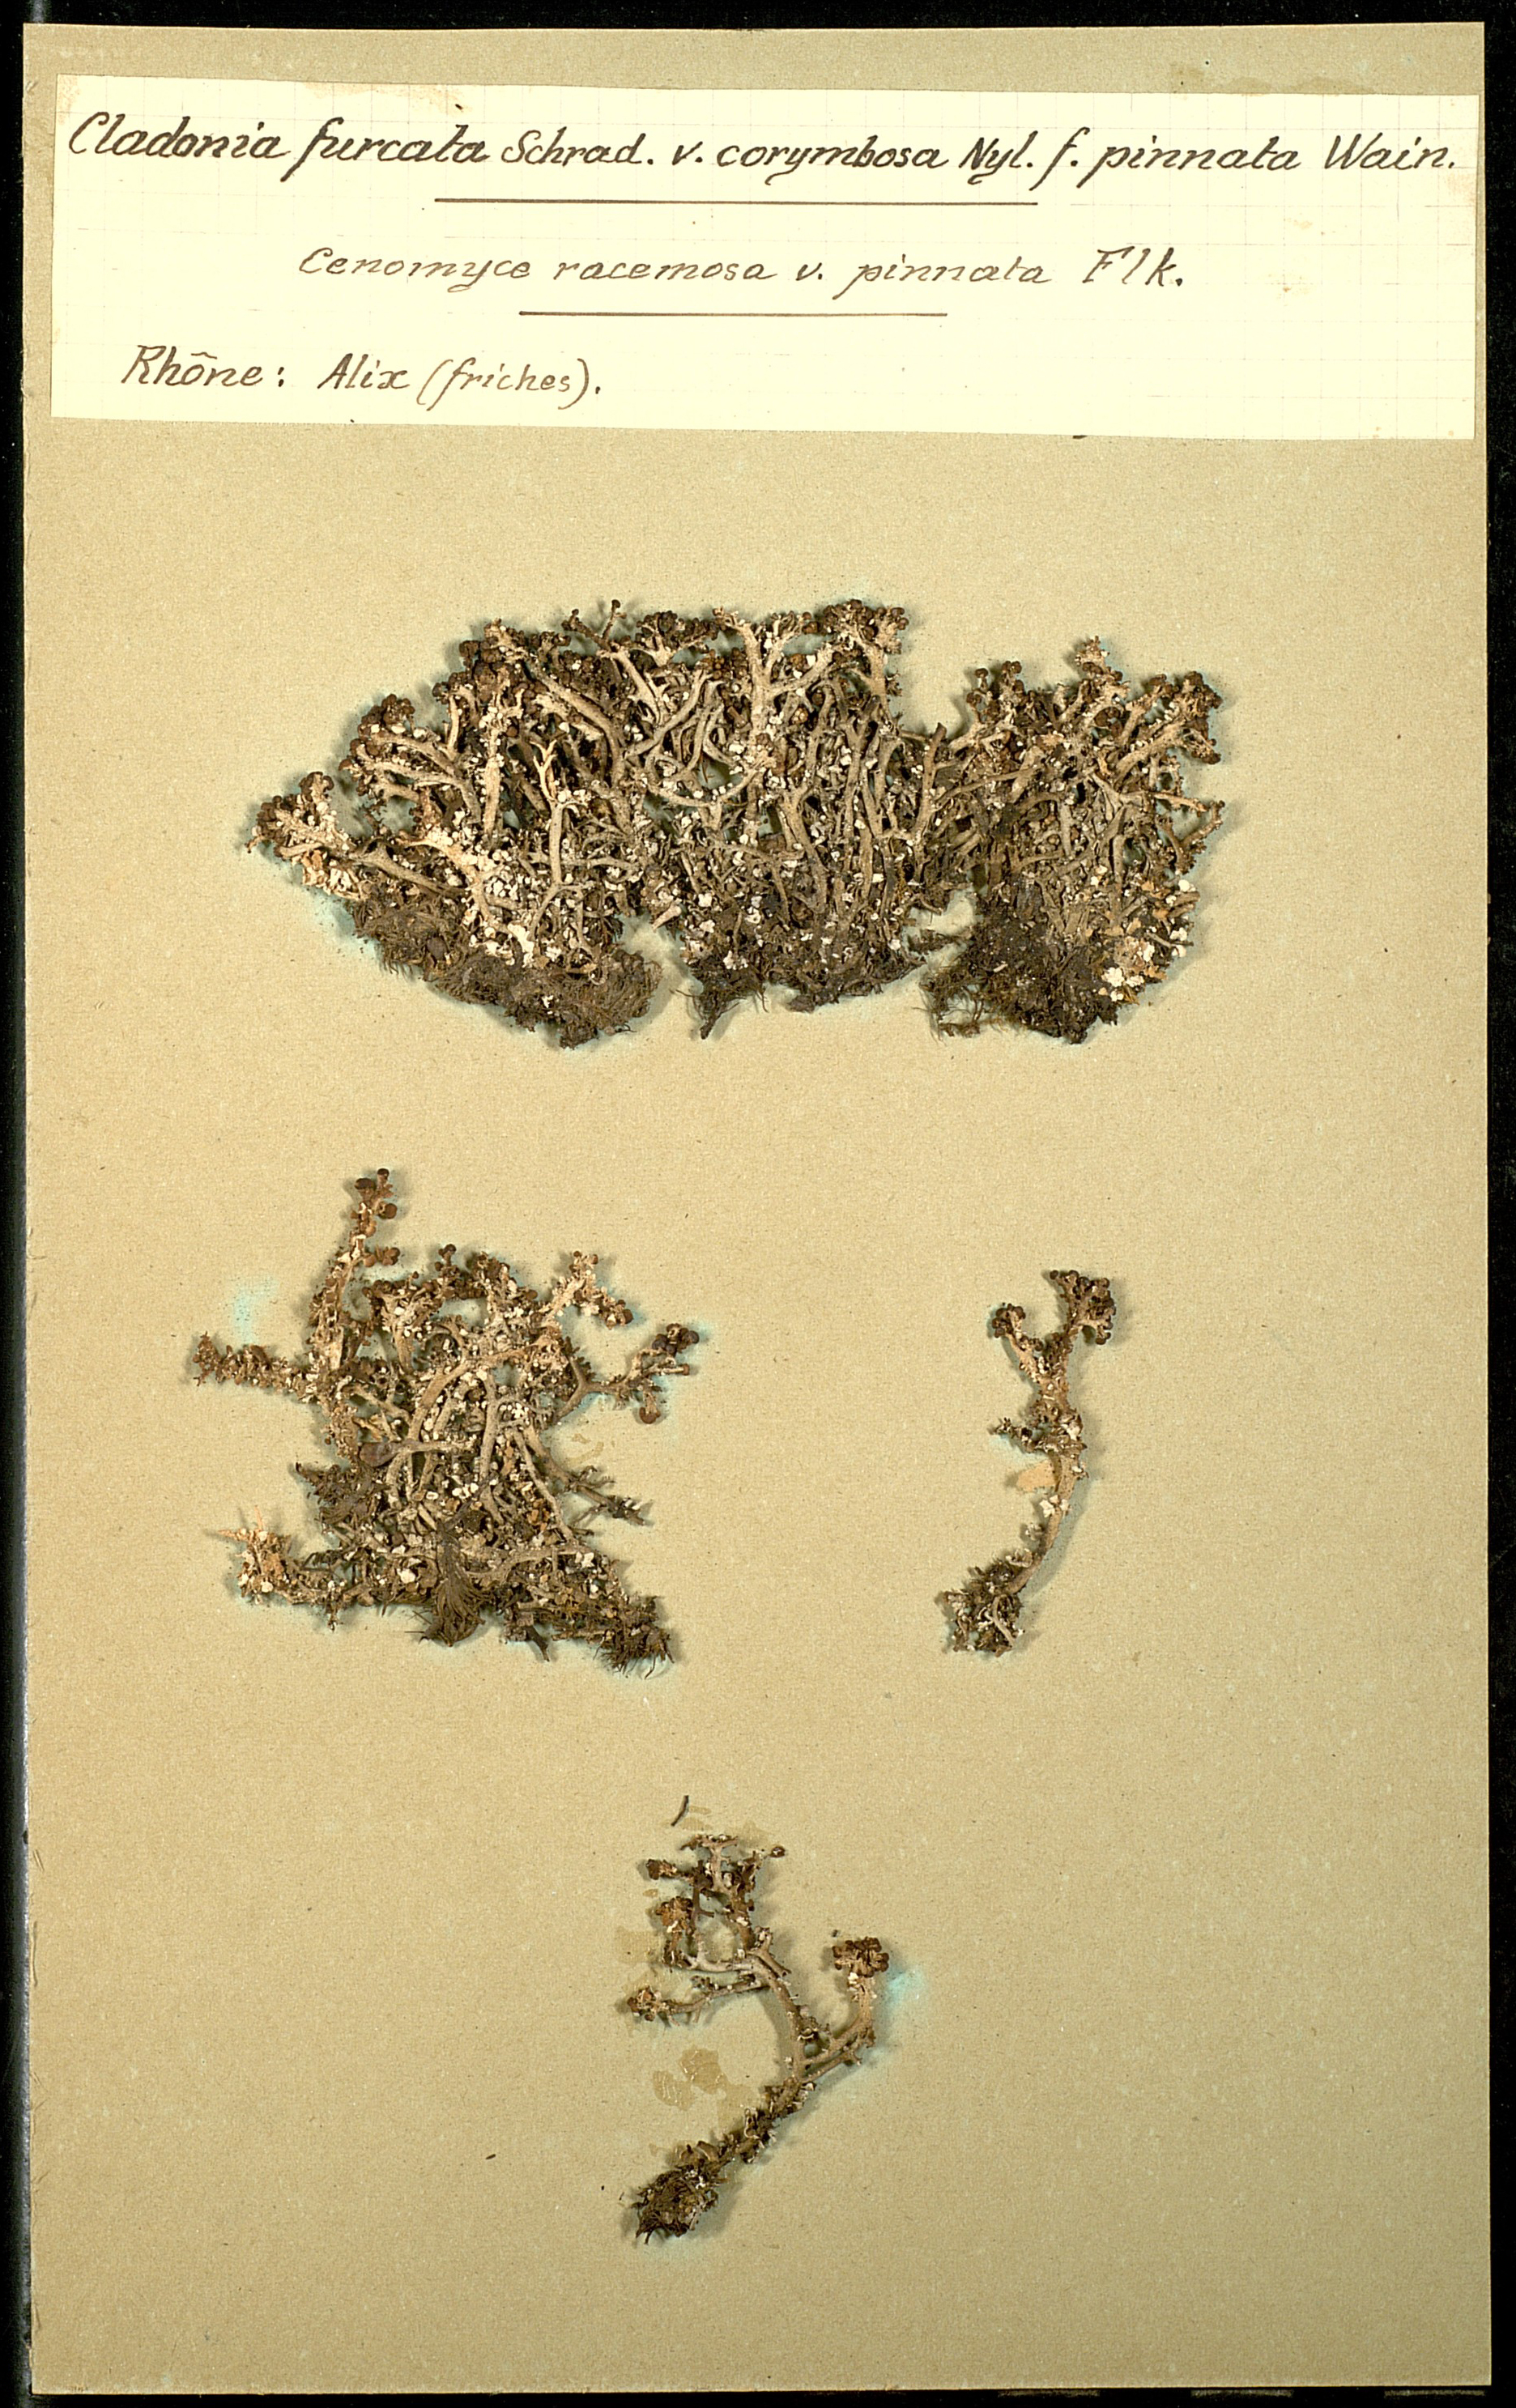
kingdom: Fungi
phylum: Ascomycota
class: Lecanoromycetes
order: Lecanorales
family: Cladoniaceae
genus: Cladonia
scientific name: Cladonia furcata
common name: Many-forked cladonia
